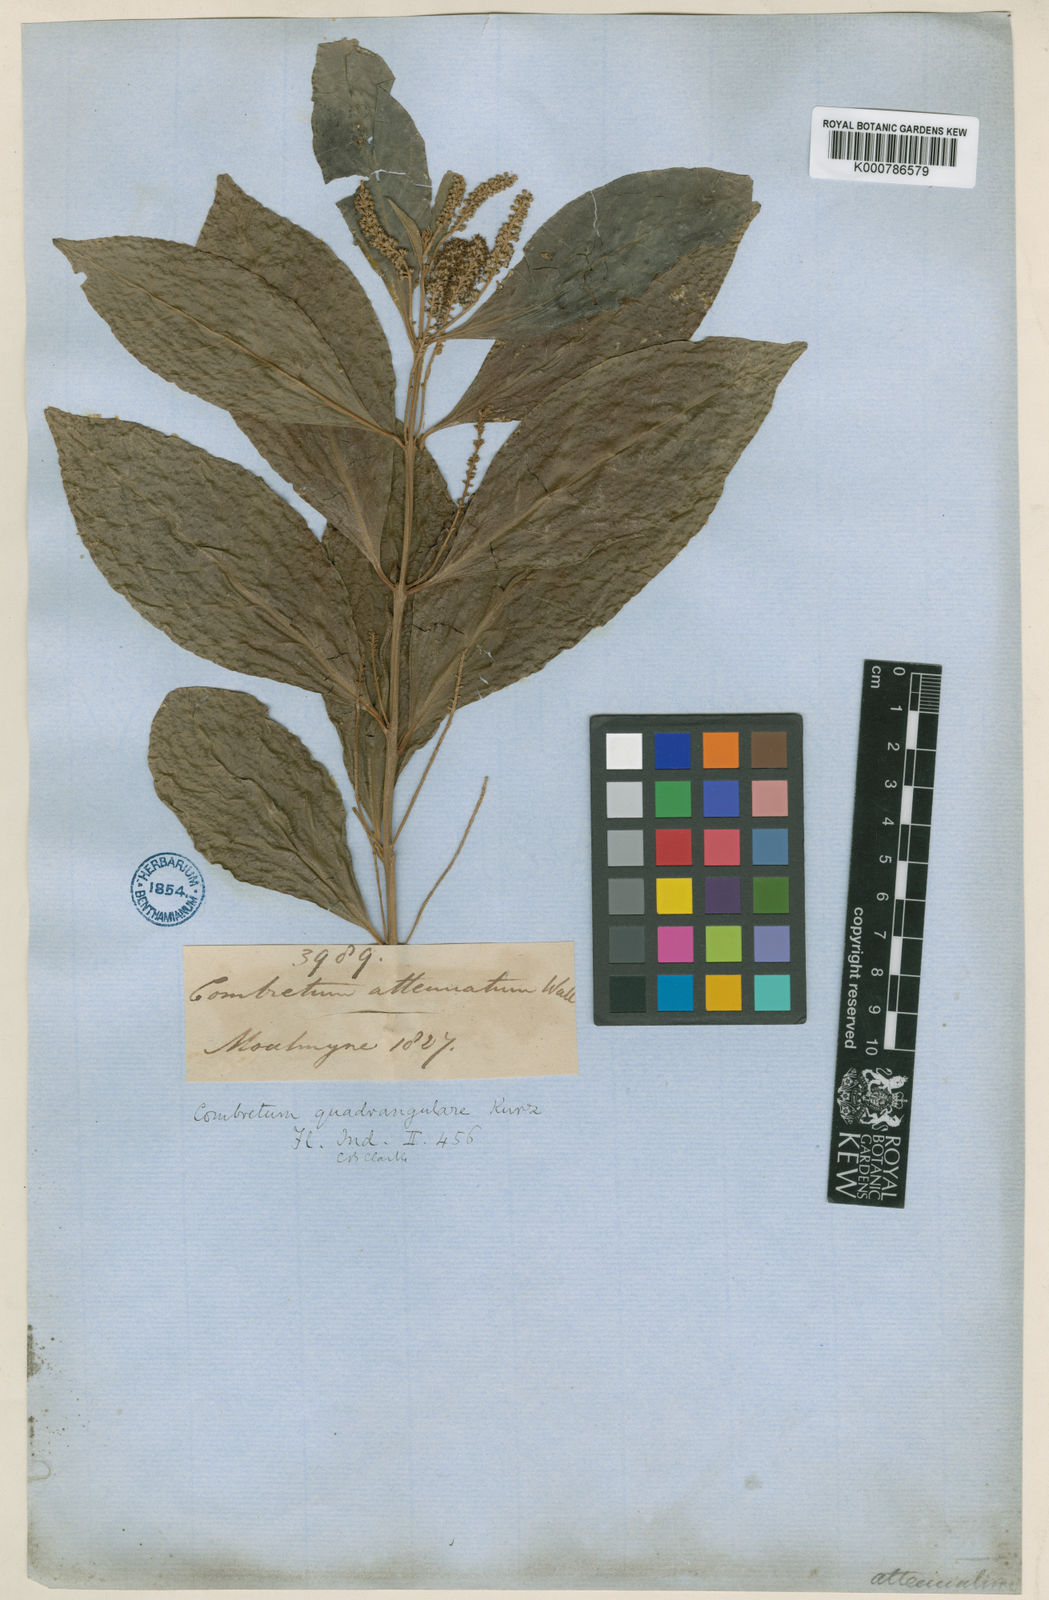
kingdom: Plantae
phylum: Tracheophyta
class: Magnoliopsida
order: Myrtales
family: Combretaceae
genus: Combretum
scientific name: Combretum quadrangulare
